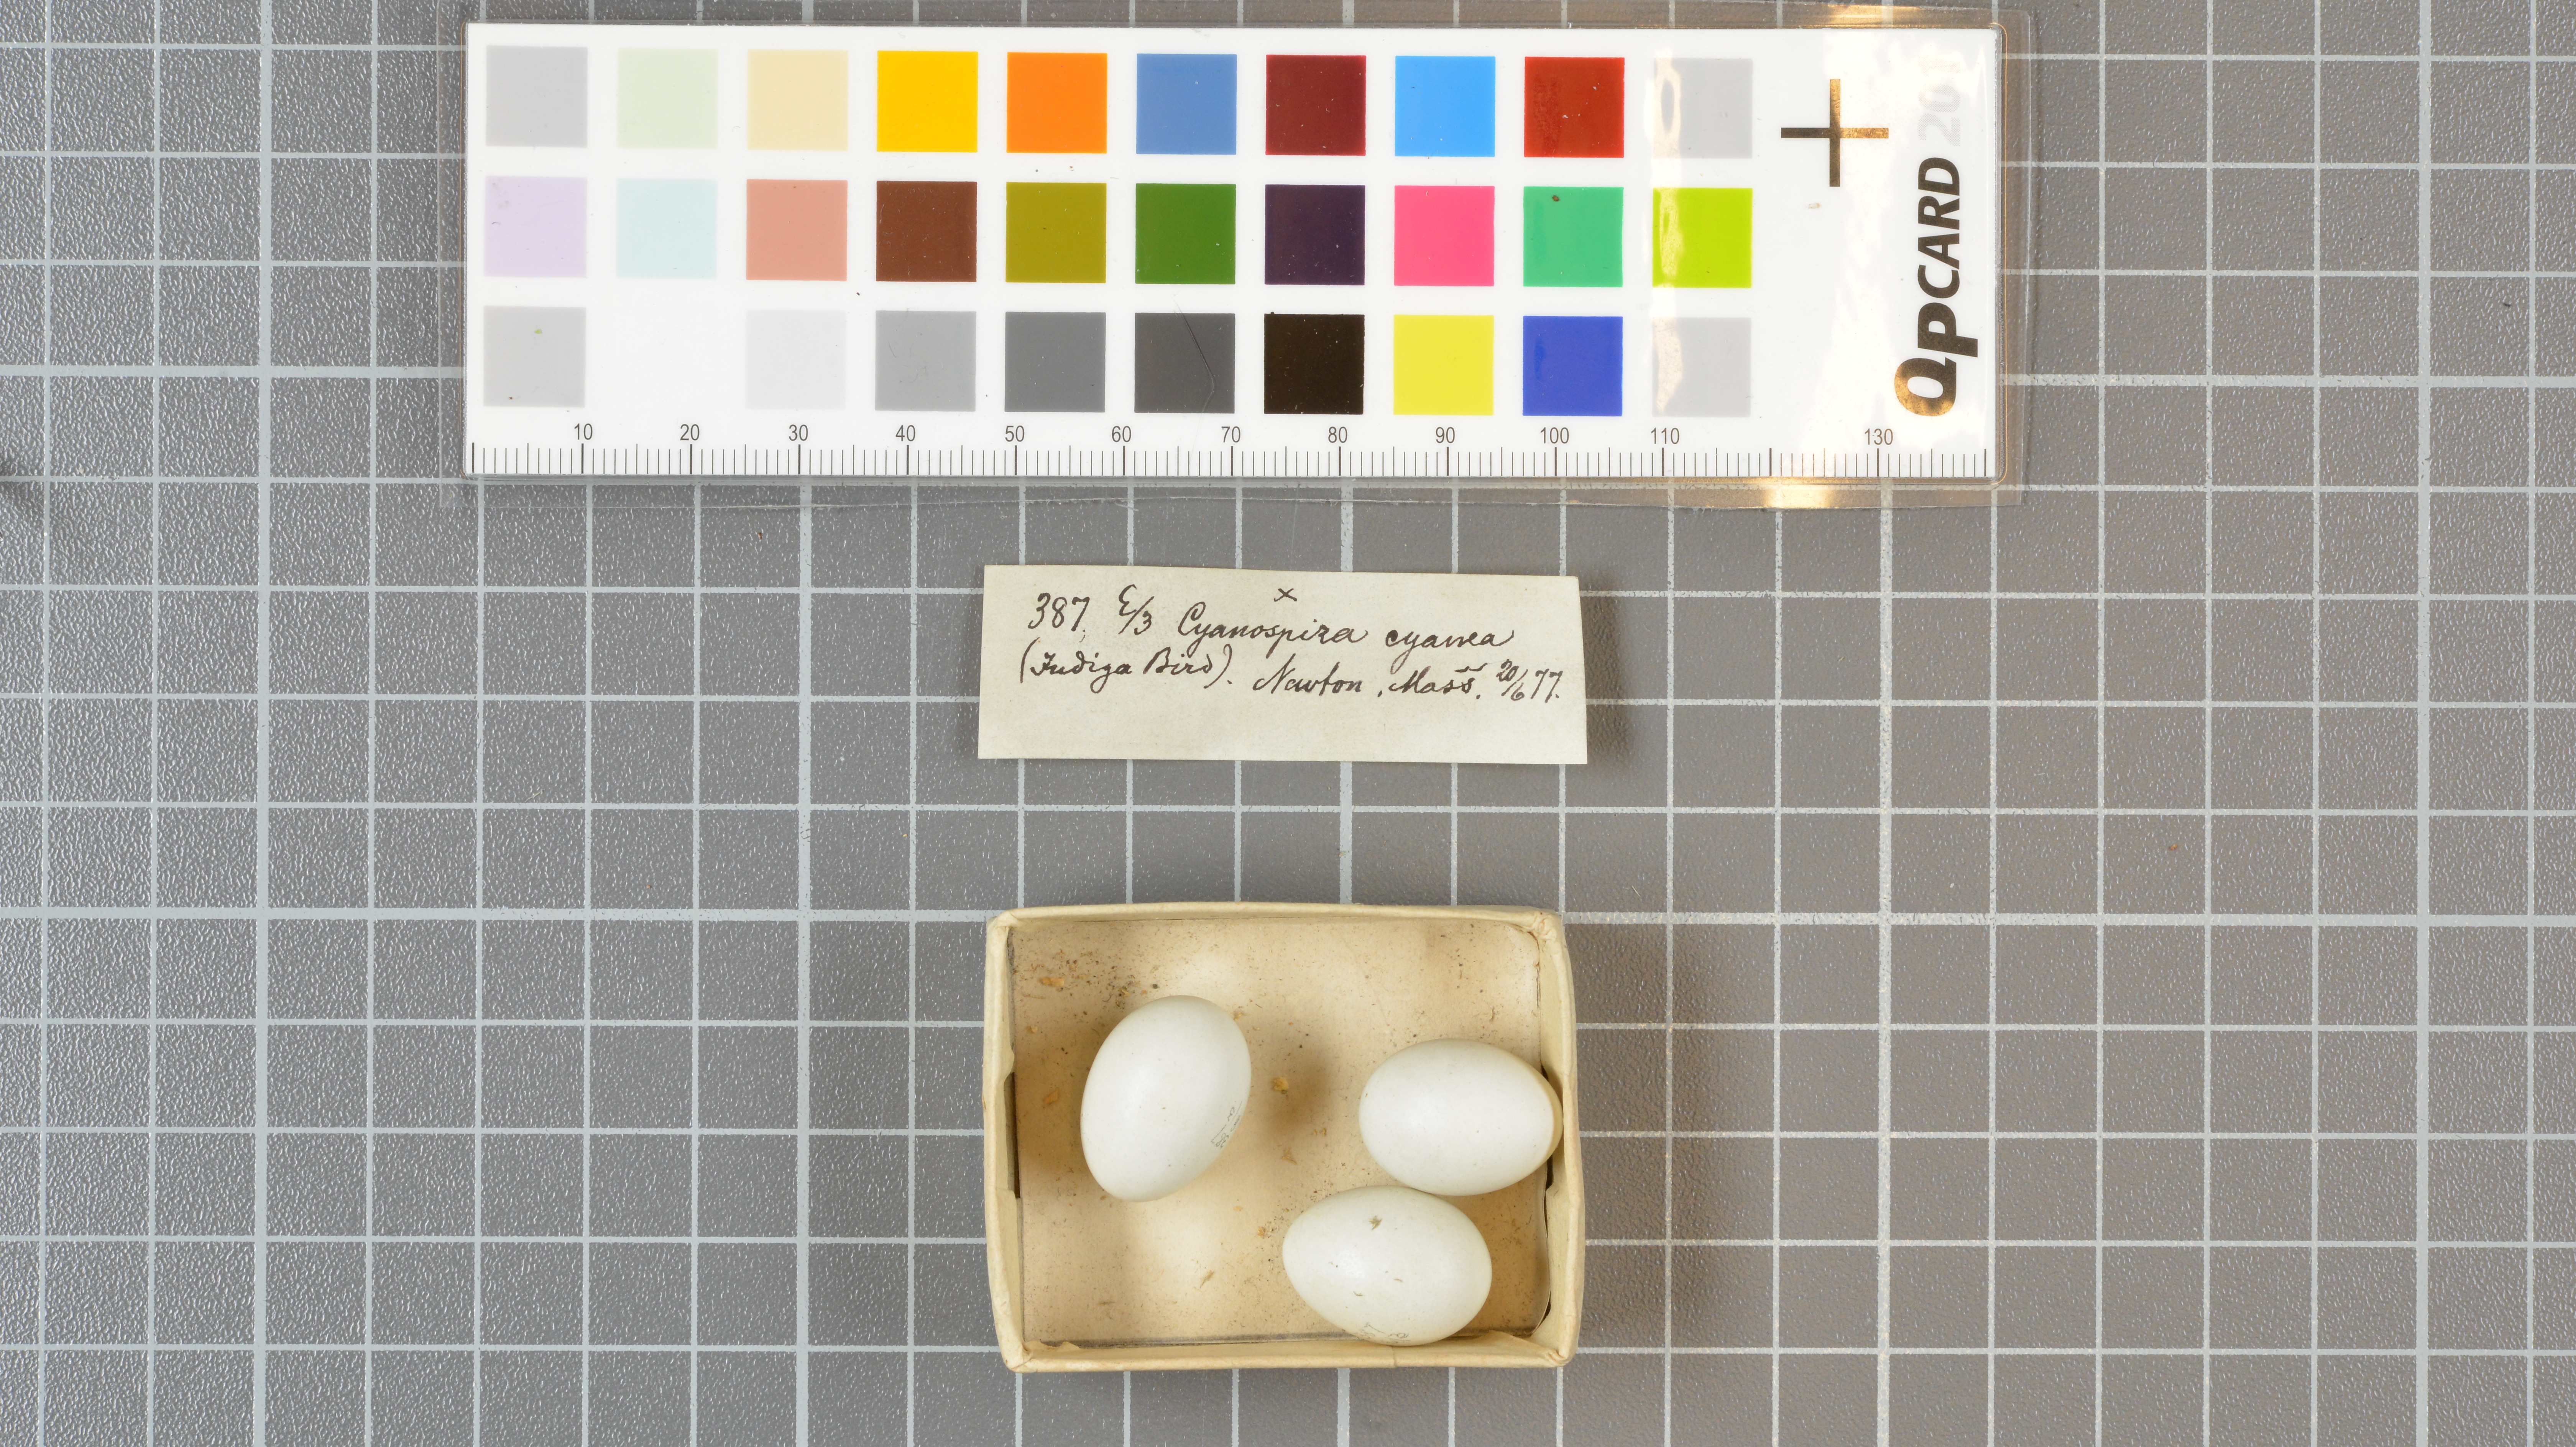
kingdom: Animalia
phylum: Chordata
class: Aves
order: Passeriformes
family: Cardinalidae
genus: Passerina
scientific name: Passerina cyanea
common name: Indigo bunting
